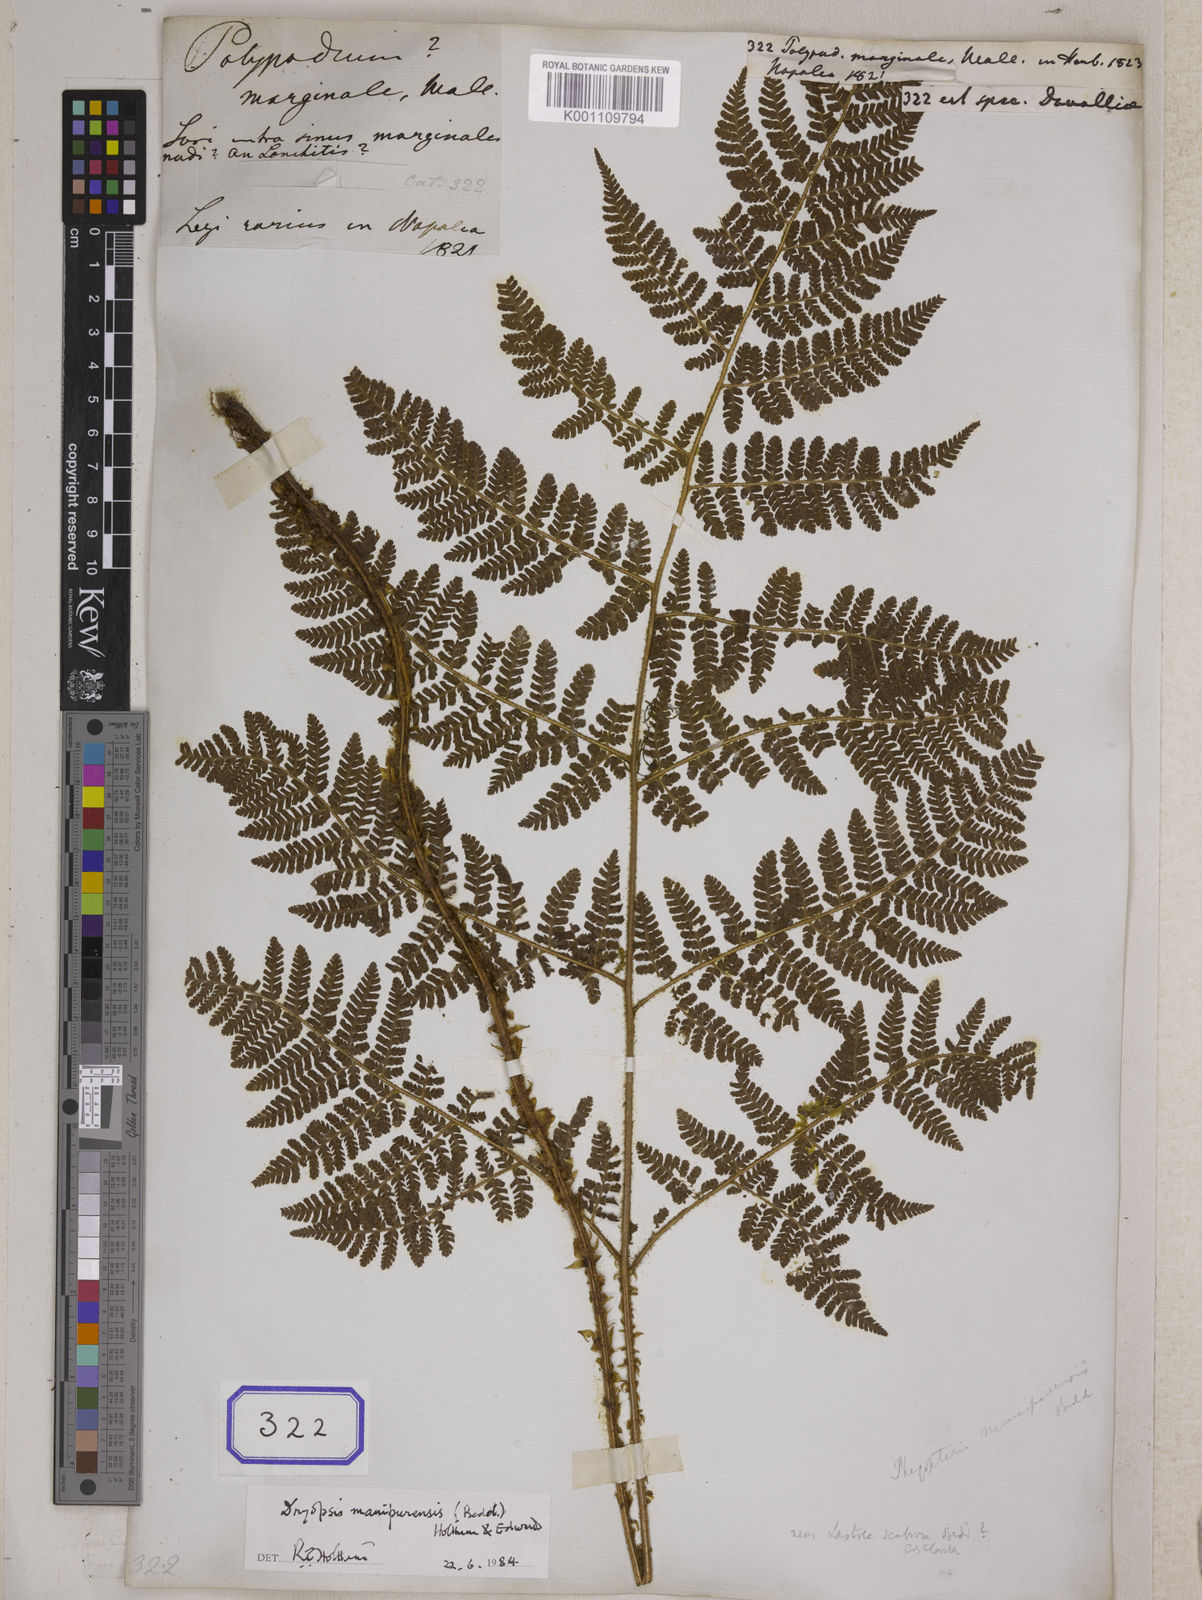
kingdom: Plantae
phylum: Tracheophyta
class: Polypodiopsida
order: Polypodiales
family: Davalliaceae
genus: Davallia
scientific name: Davallia
